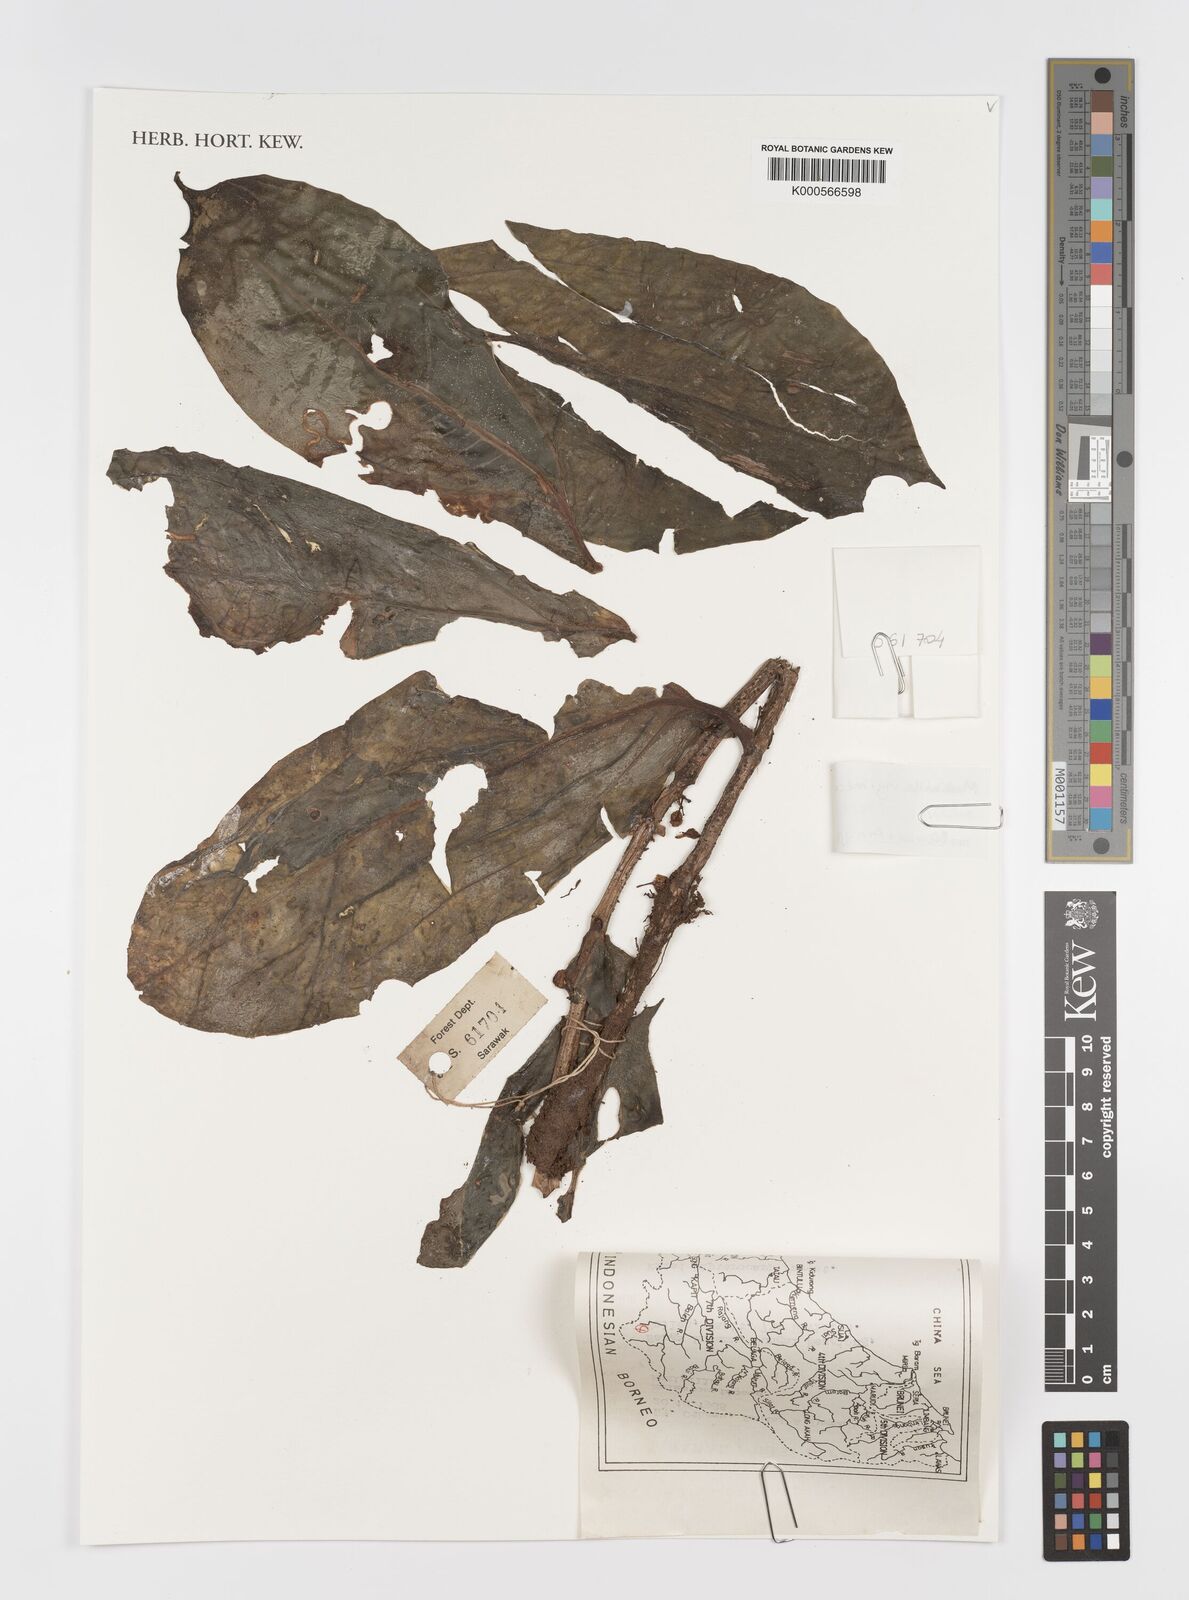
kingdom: Plantae
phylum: Tracheophyta
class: Magnoliopsida
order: Myrtales
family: Melastomataceae
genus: Medinilla
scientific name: Medinilla sessilifolia
